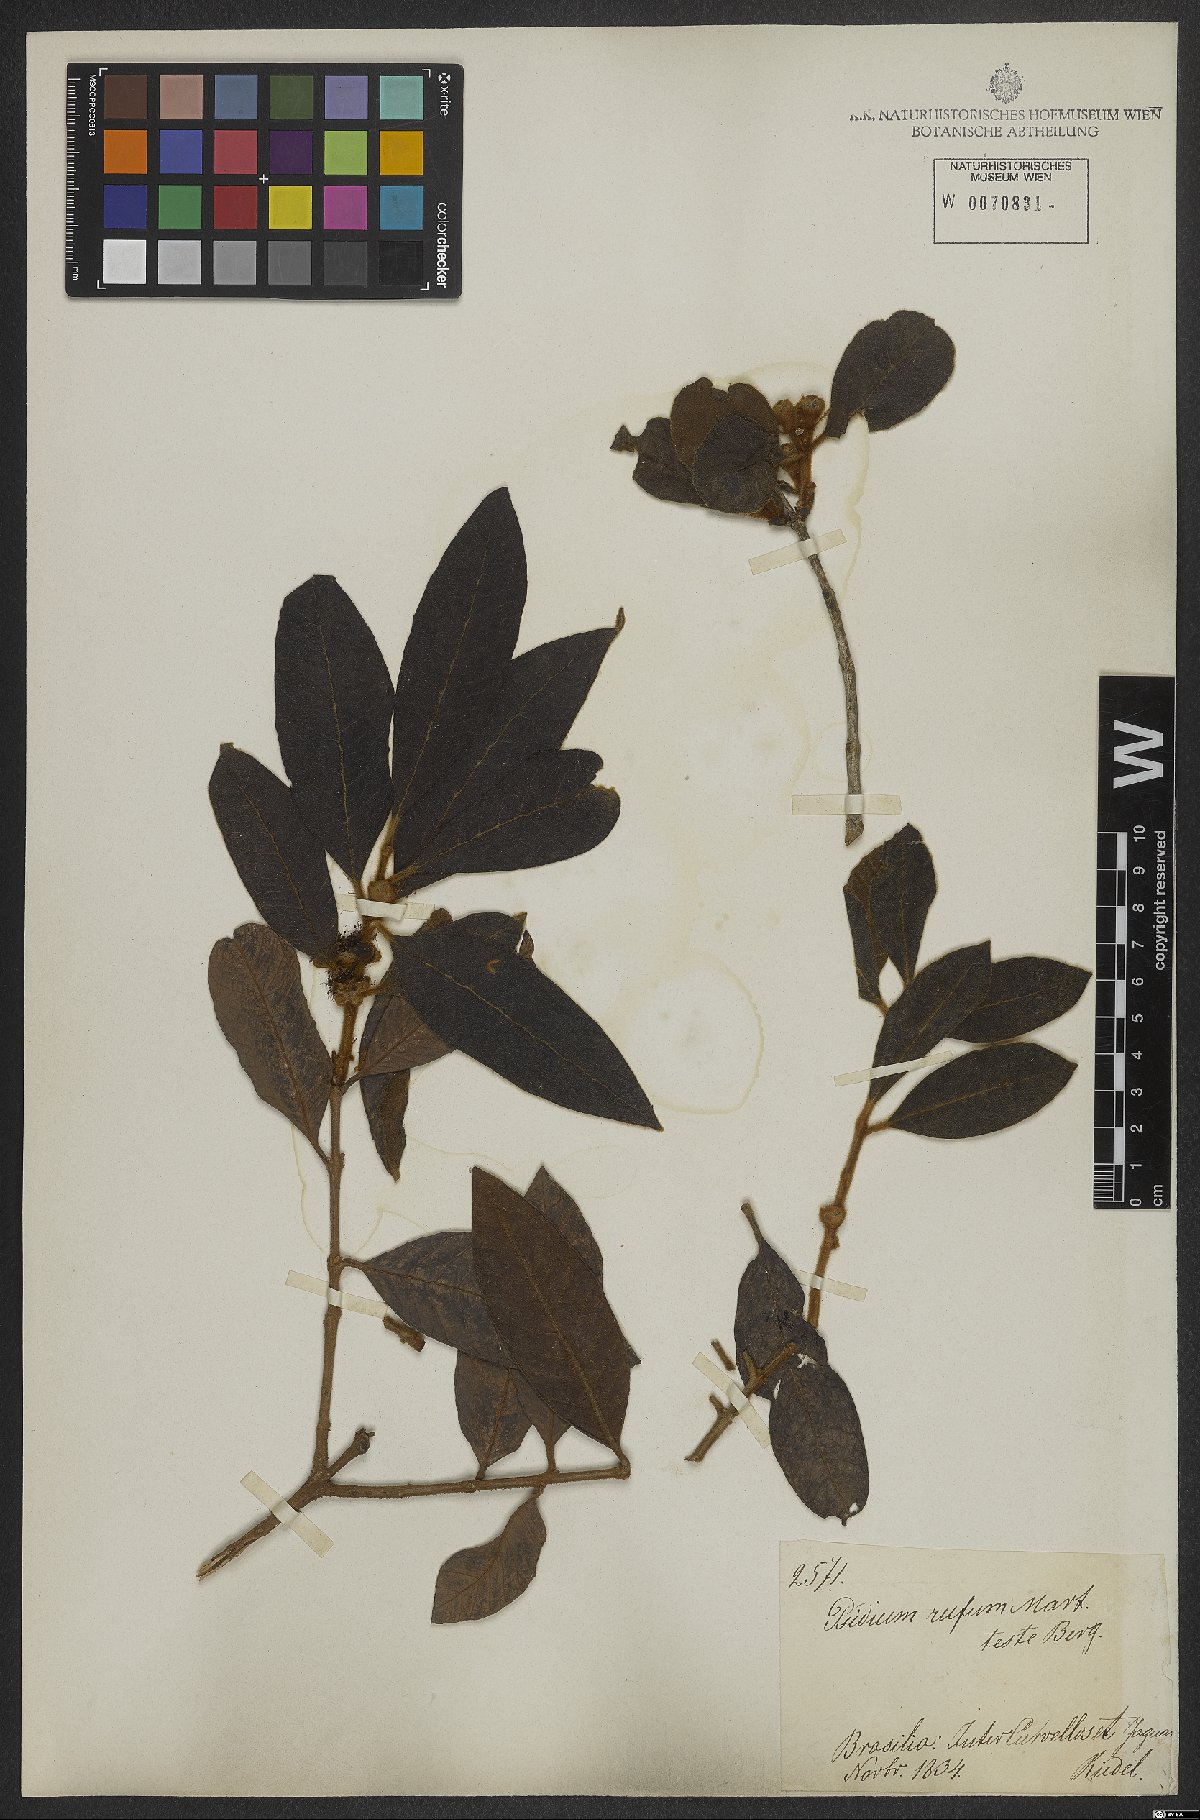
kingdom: Plantae
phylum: Tracheophyta
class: Magnoliopsida
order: Myrtales
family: Myrtaceae
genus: Psidium
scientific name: Psidium rufum
